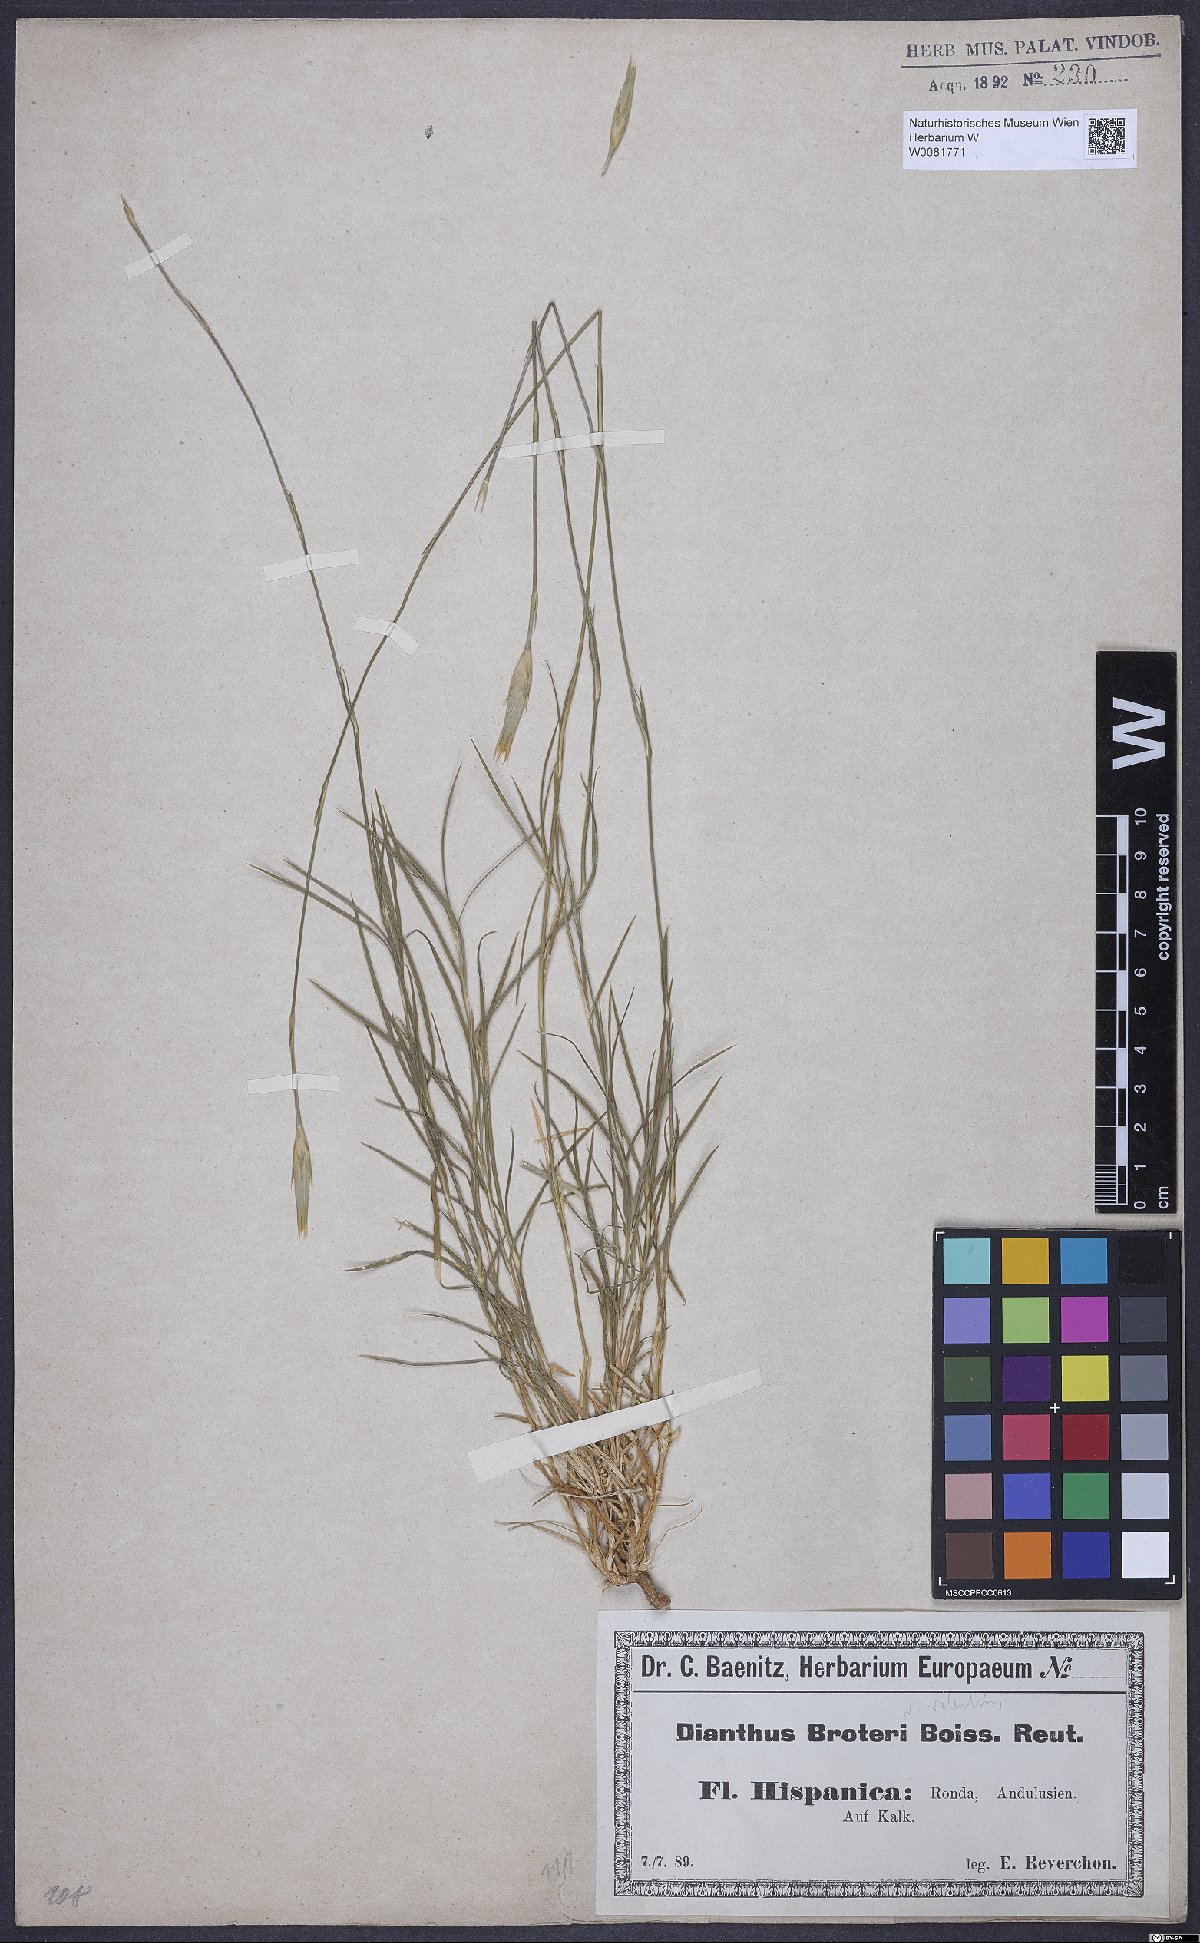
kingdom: Plantae
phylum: Tracheophyta
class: Magnoliopsida
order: Caryophyllales
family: Caryophyllaceae
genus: Dianthus
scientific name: Dianthus broteri
